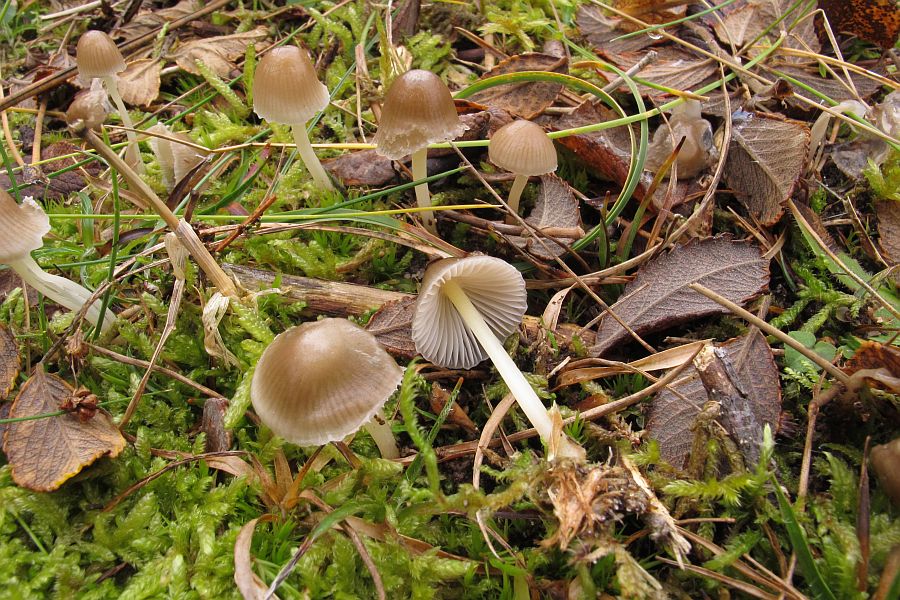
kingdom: Fungi
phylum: Basidiomycota
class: Agaricomycetes
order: Agaricales
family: Mycenaceae
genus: Mycena
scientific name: Mycena epipterygia
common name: gulstokket huesvamp
